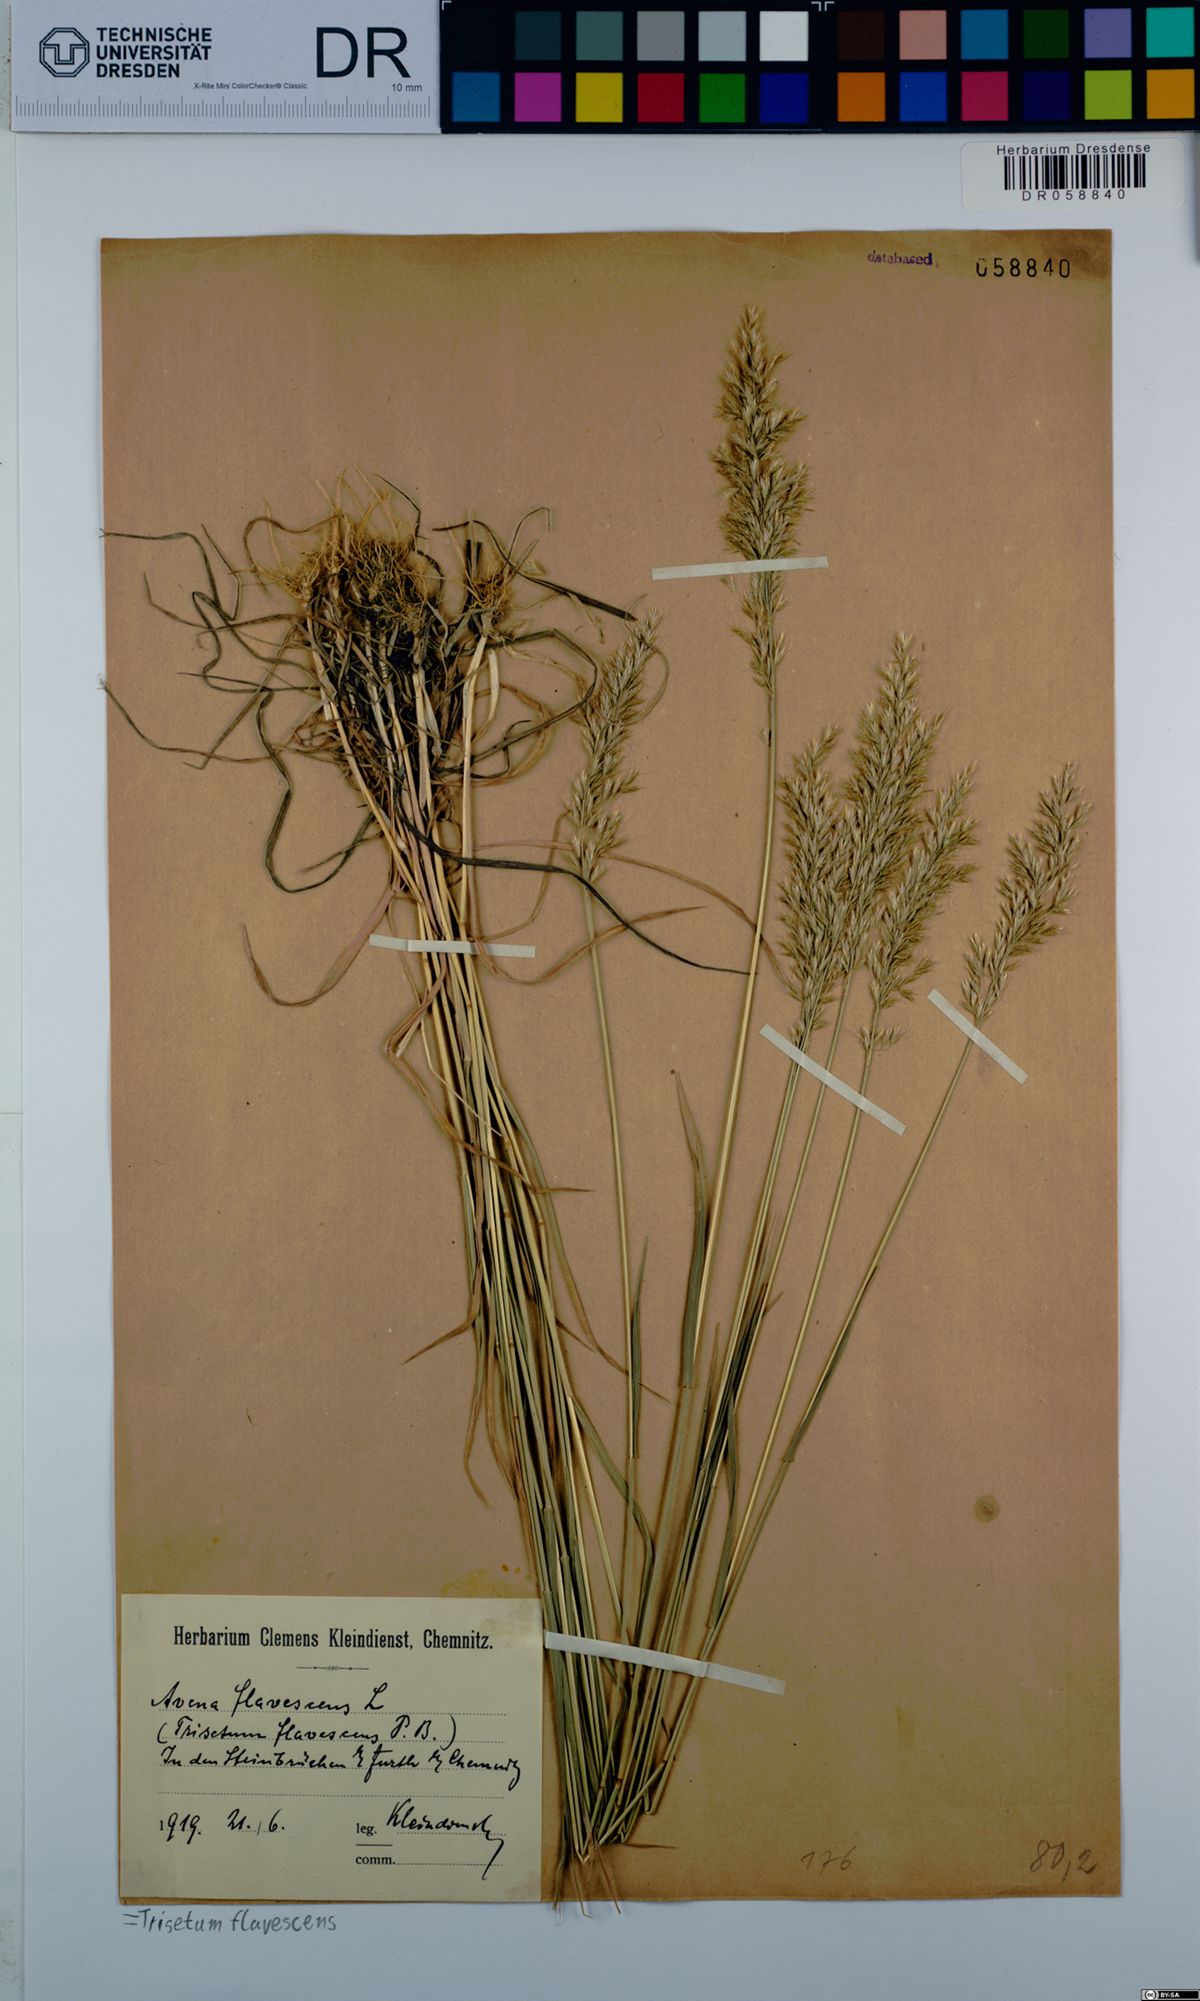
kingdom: Plantae
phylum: Tracheophyta
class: Liliopsida
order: Poales
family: Poaceae
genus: Trisetum
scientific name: Trisetum flavescens
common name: Yellow oat-grass
